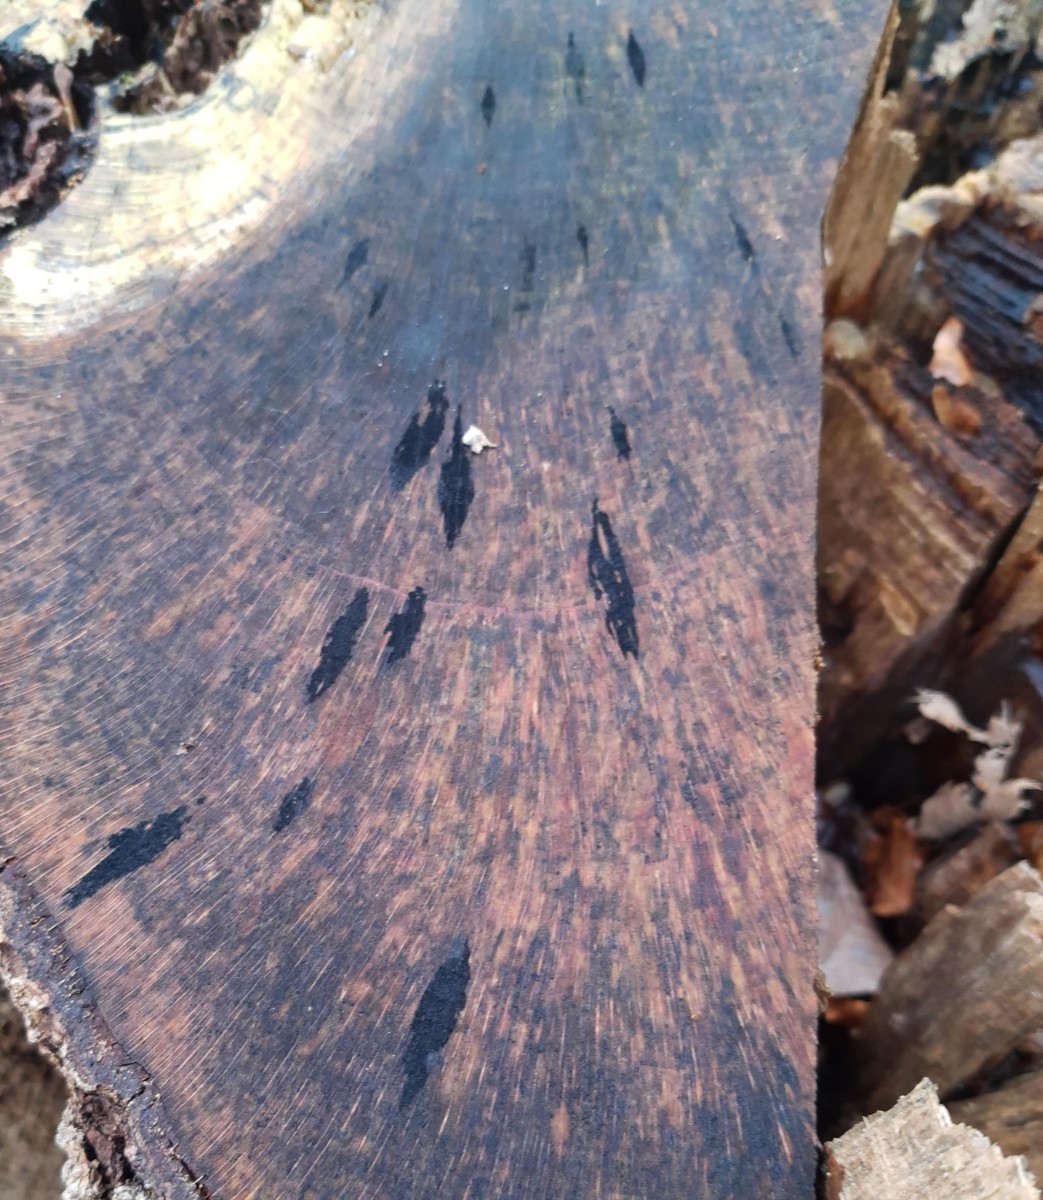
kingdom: Fungi
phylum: Ascomycota
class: Leotiomycetes
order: Helotiales
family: Helotiaceae
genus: Bispora
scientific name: Bispora pallescens
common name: måtte-snitskive
